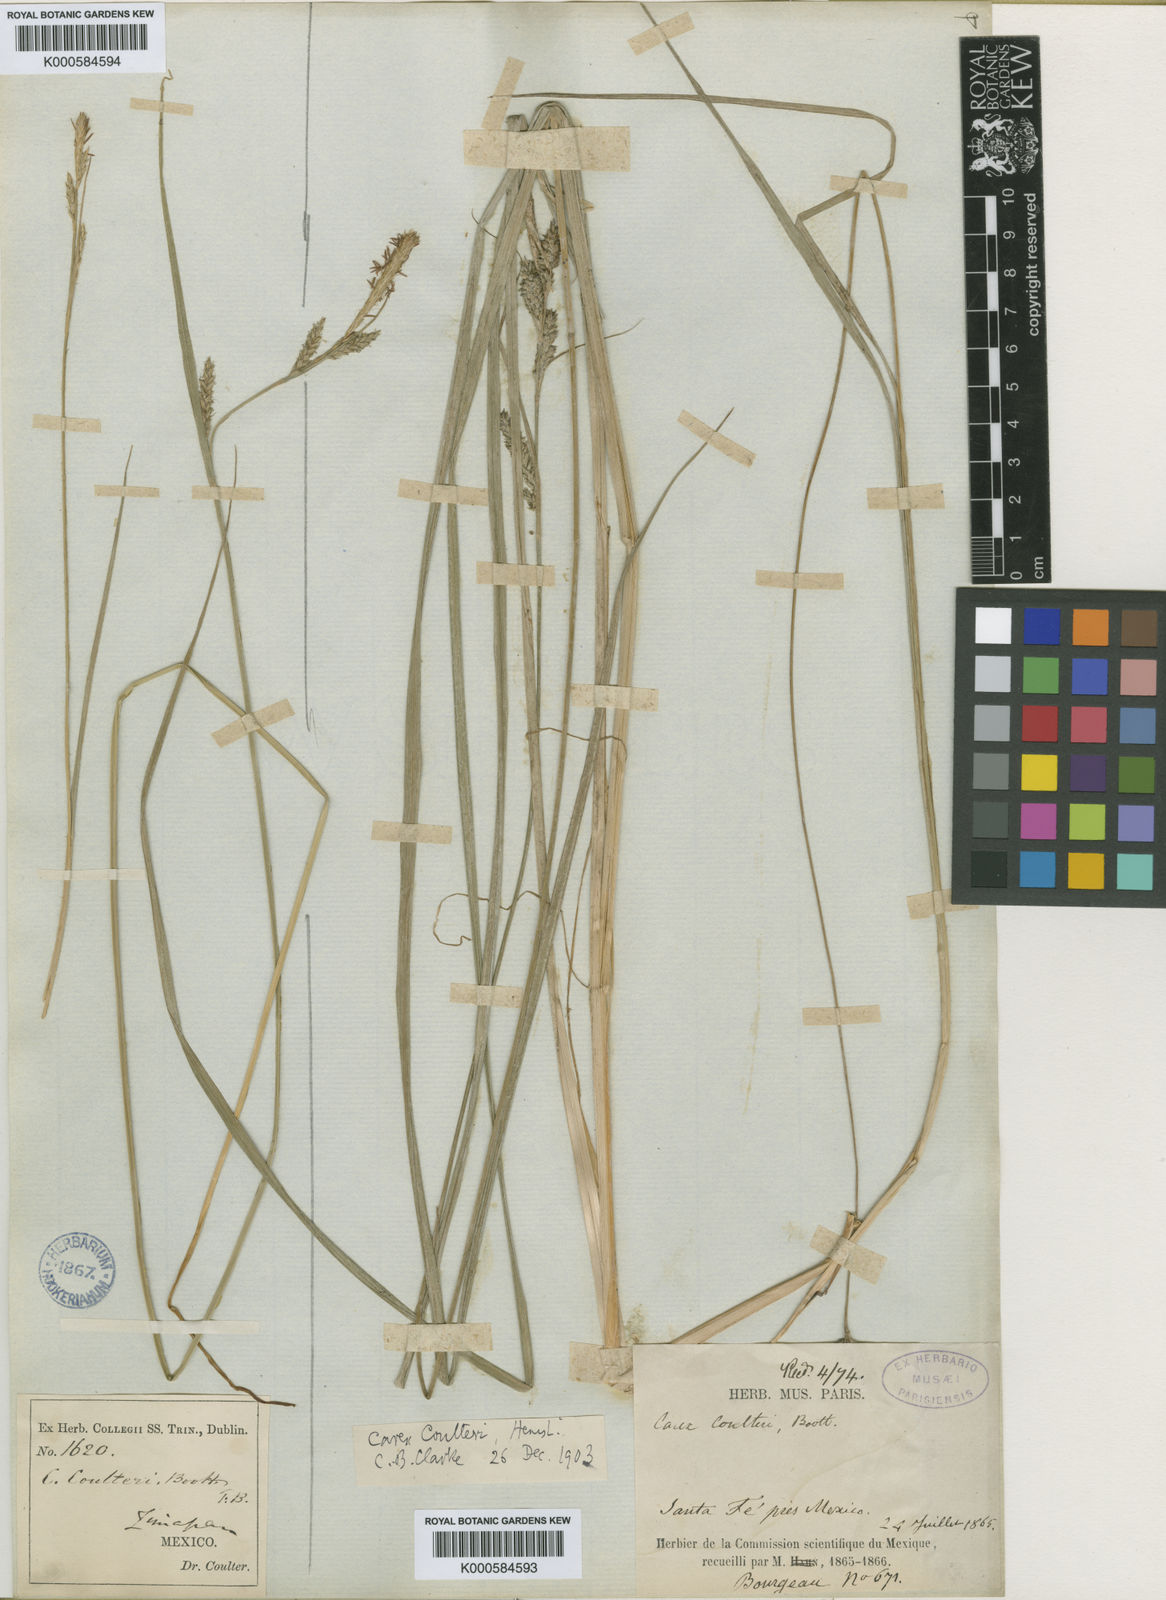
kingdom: Plantae
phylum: Tracheophyta
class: Liliopsida
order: Poales
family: Cyperaceae
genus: Carex
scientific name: Carex coulteri
